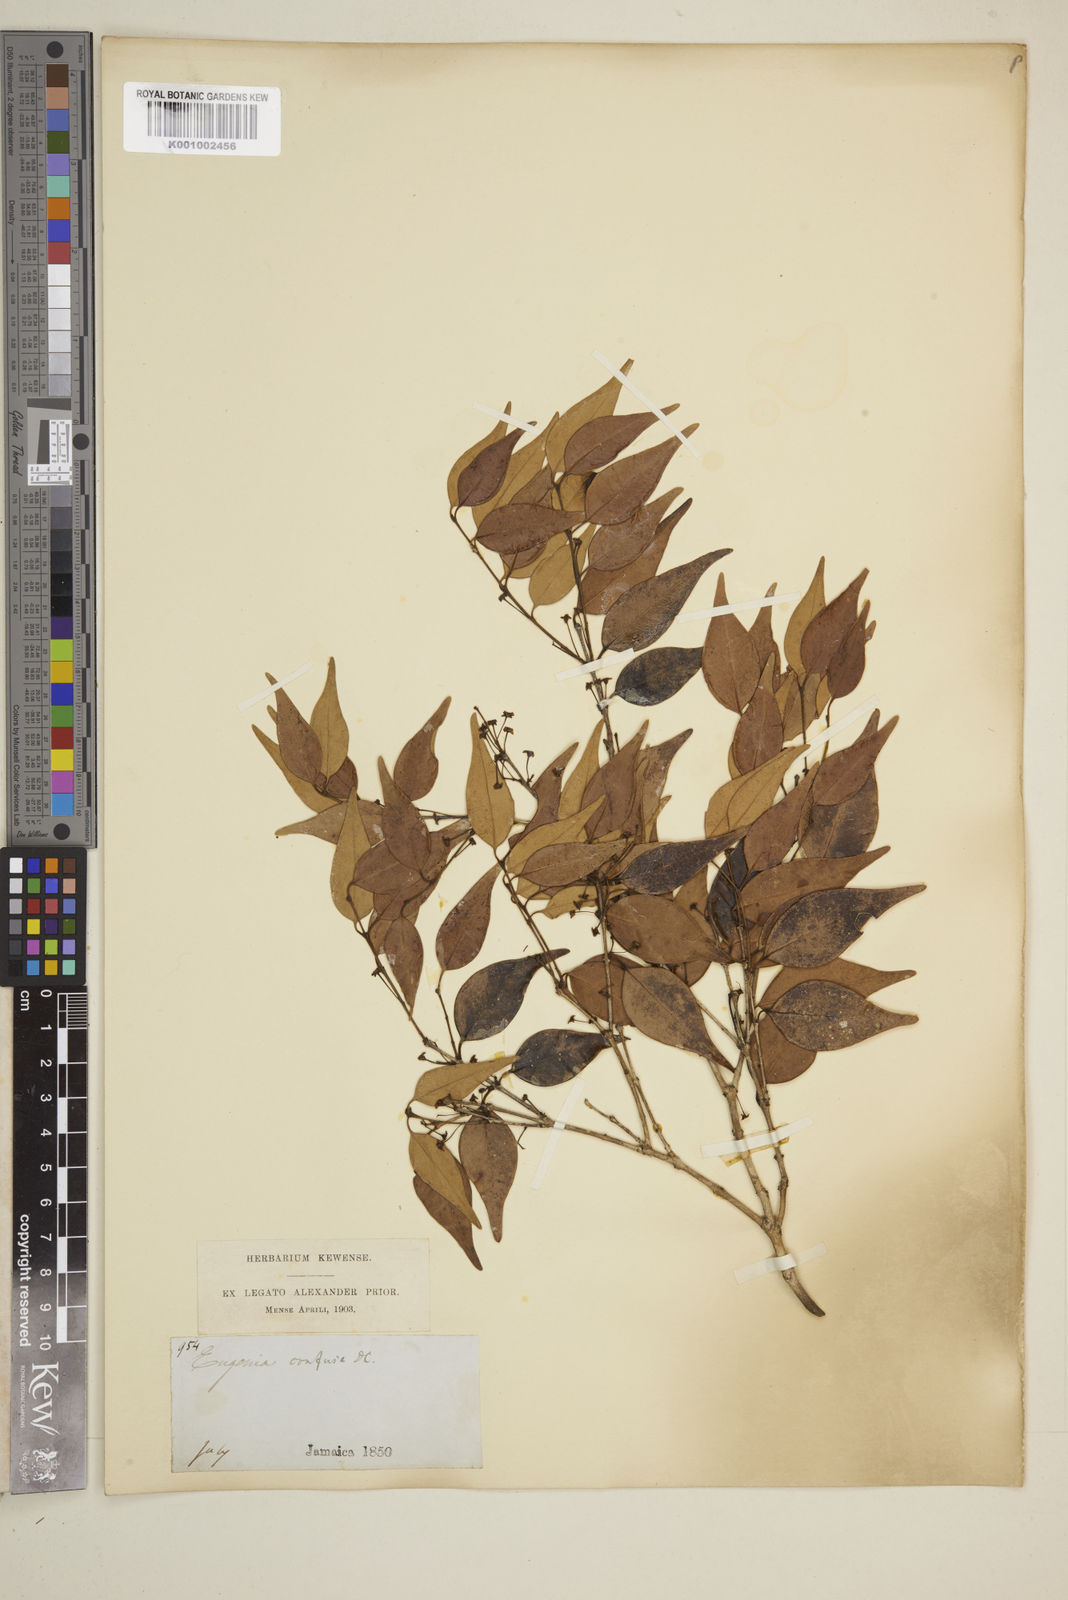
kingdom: Plantae
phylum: Tracheophyta
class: Magnoliopsida
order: Myrtales
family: Myrtaceae
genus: Eugenia
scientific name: Eugenia confusa
